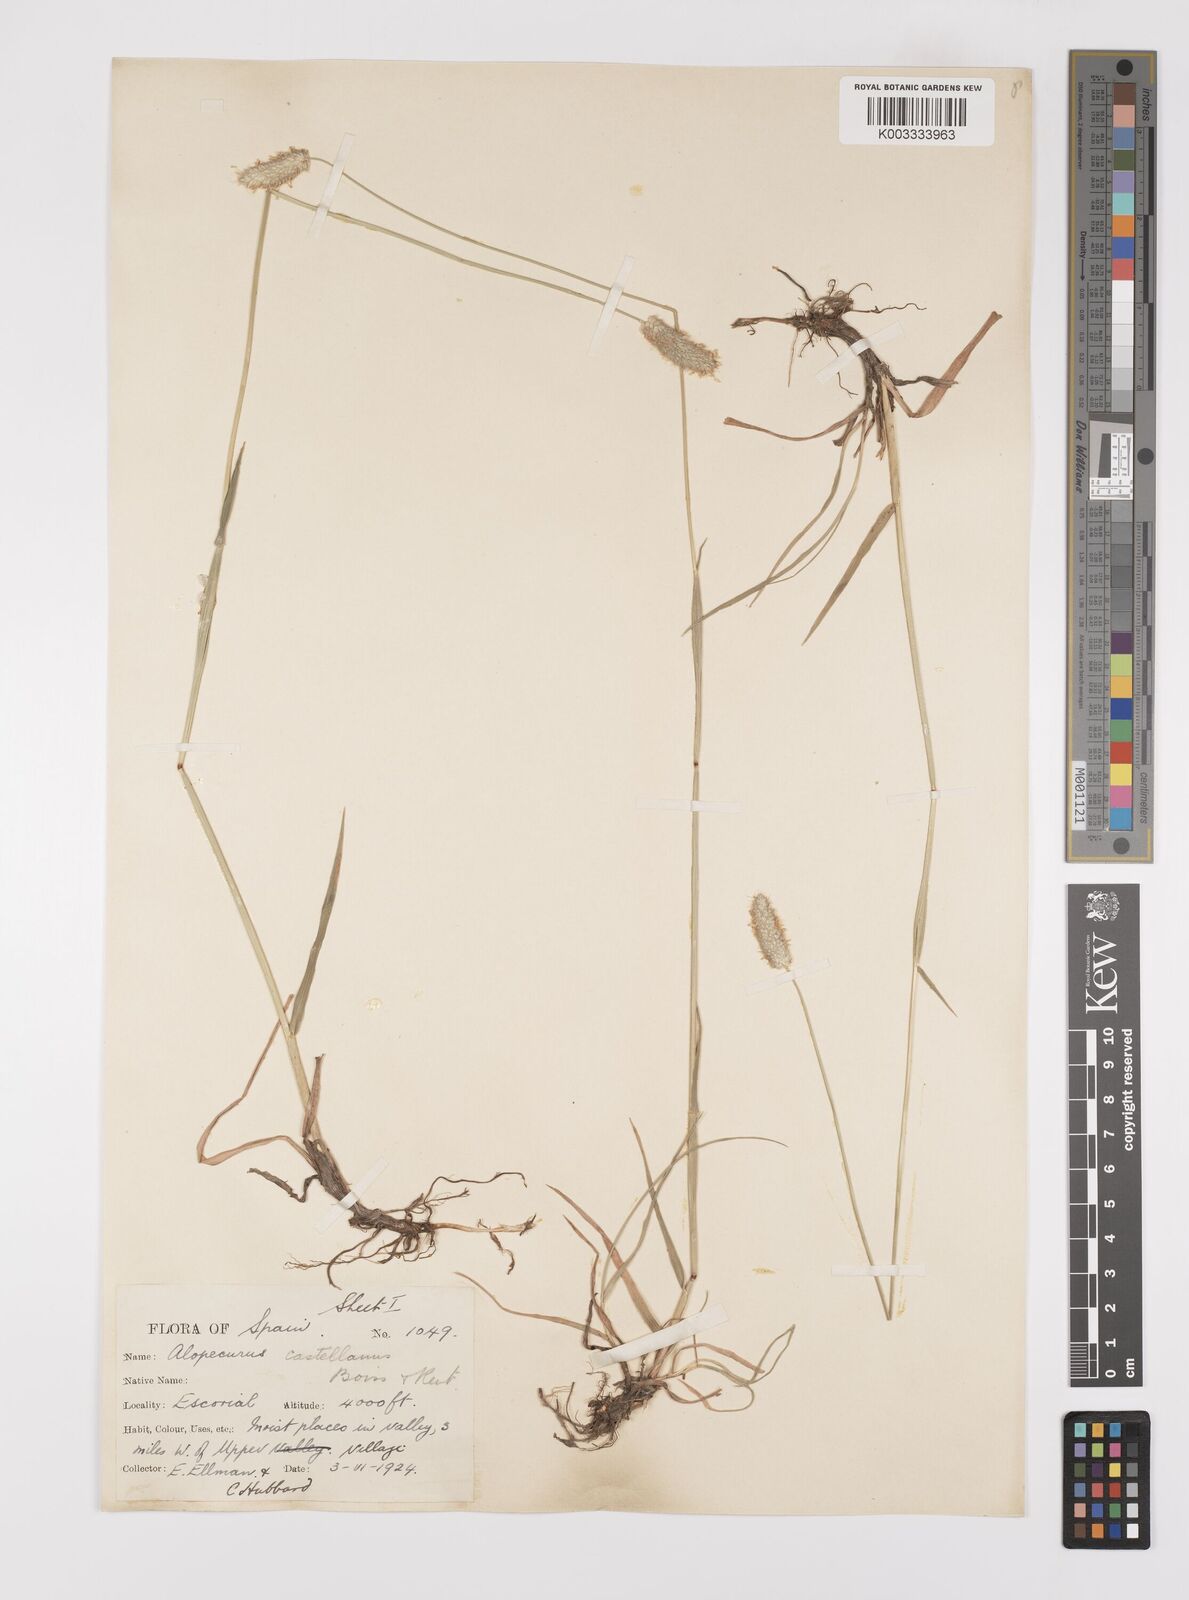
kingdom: Plantae
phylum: Tracheophyta
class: Liliopsida
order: Poales
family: Poaceae
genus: Alopecurus
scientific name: Alopecurus arundinaceus
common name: Creeping meadow foxtail
